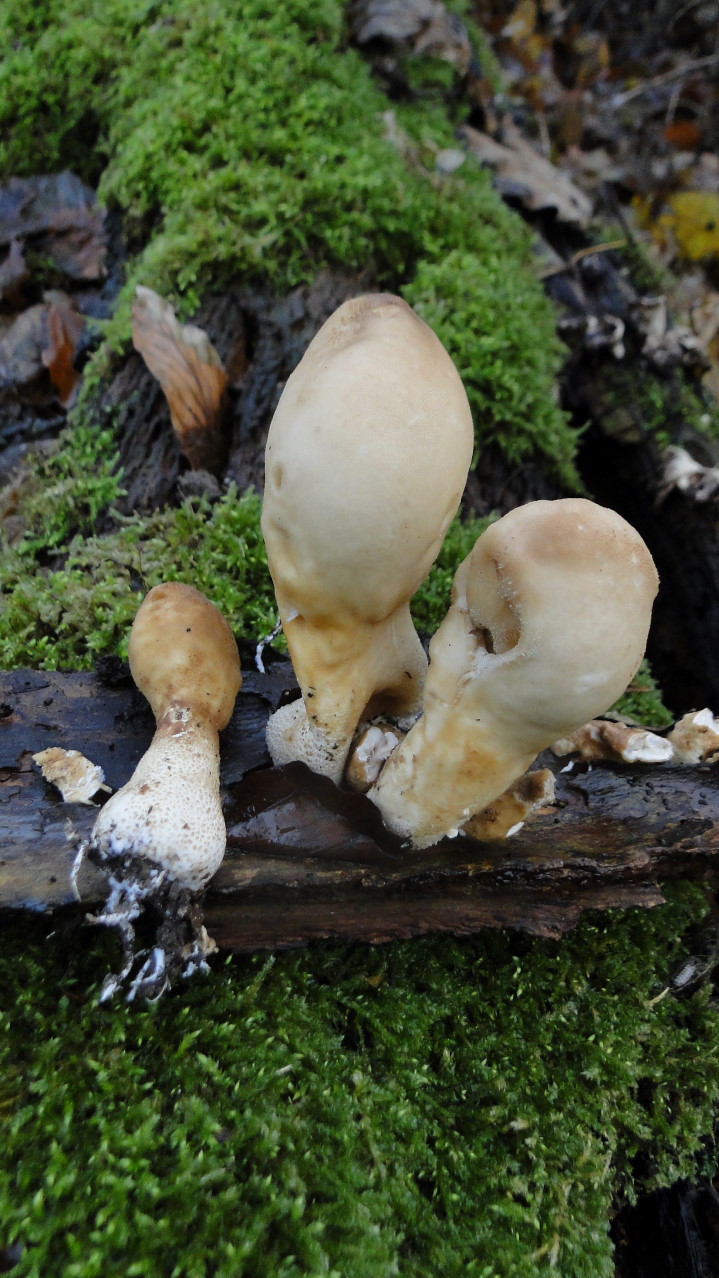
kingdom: Fungi
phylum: Basidiomycota
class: Agaricomycetes
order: Agaricales
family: Lycoperdaceae
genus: Apioperdon
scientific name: Apioperdon pyriforme
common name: pære-støvbold
